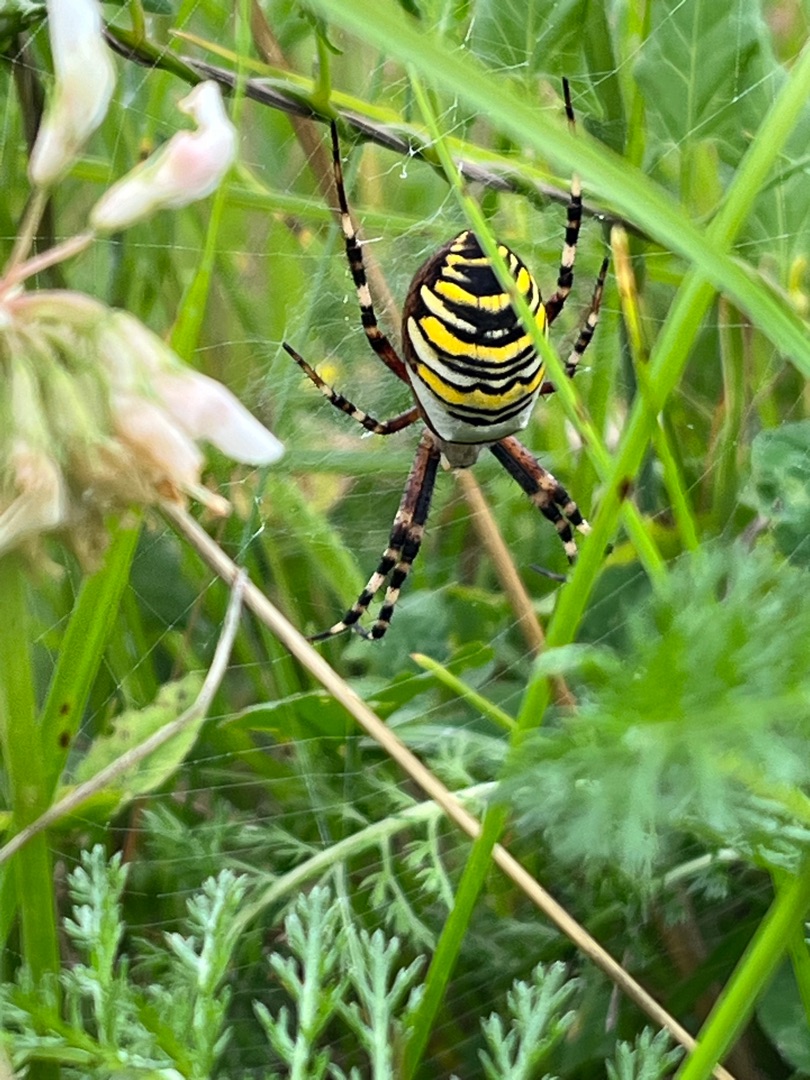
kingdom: Animalia
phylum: Arthropoda
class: Arachnida
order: Araneae
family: Araneidae
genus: Argiope
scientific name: Argiope bruennichi
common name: Hvepseedderkop
